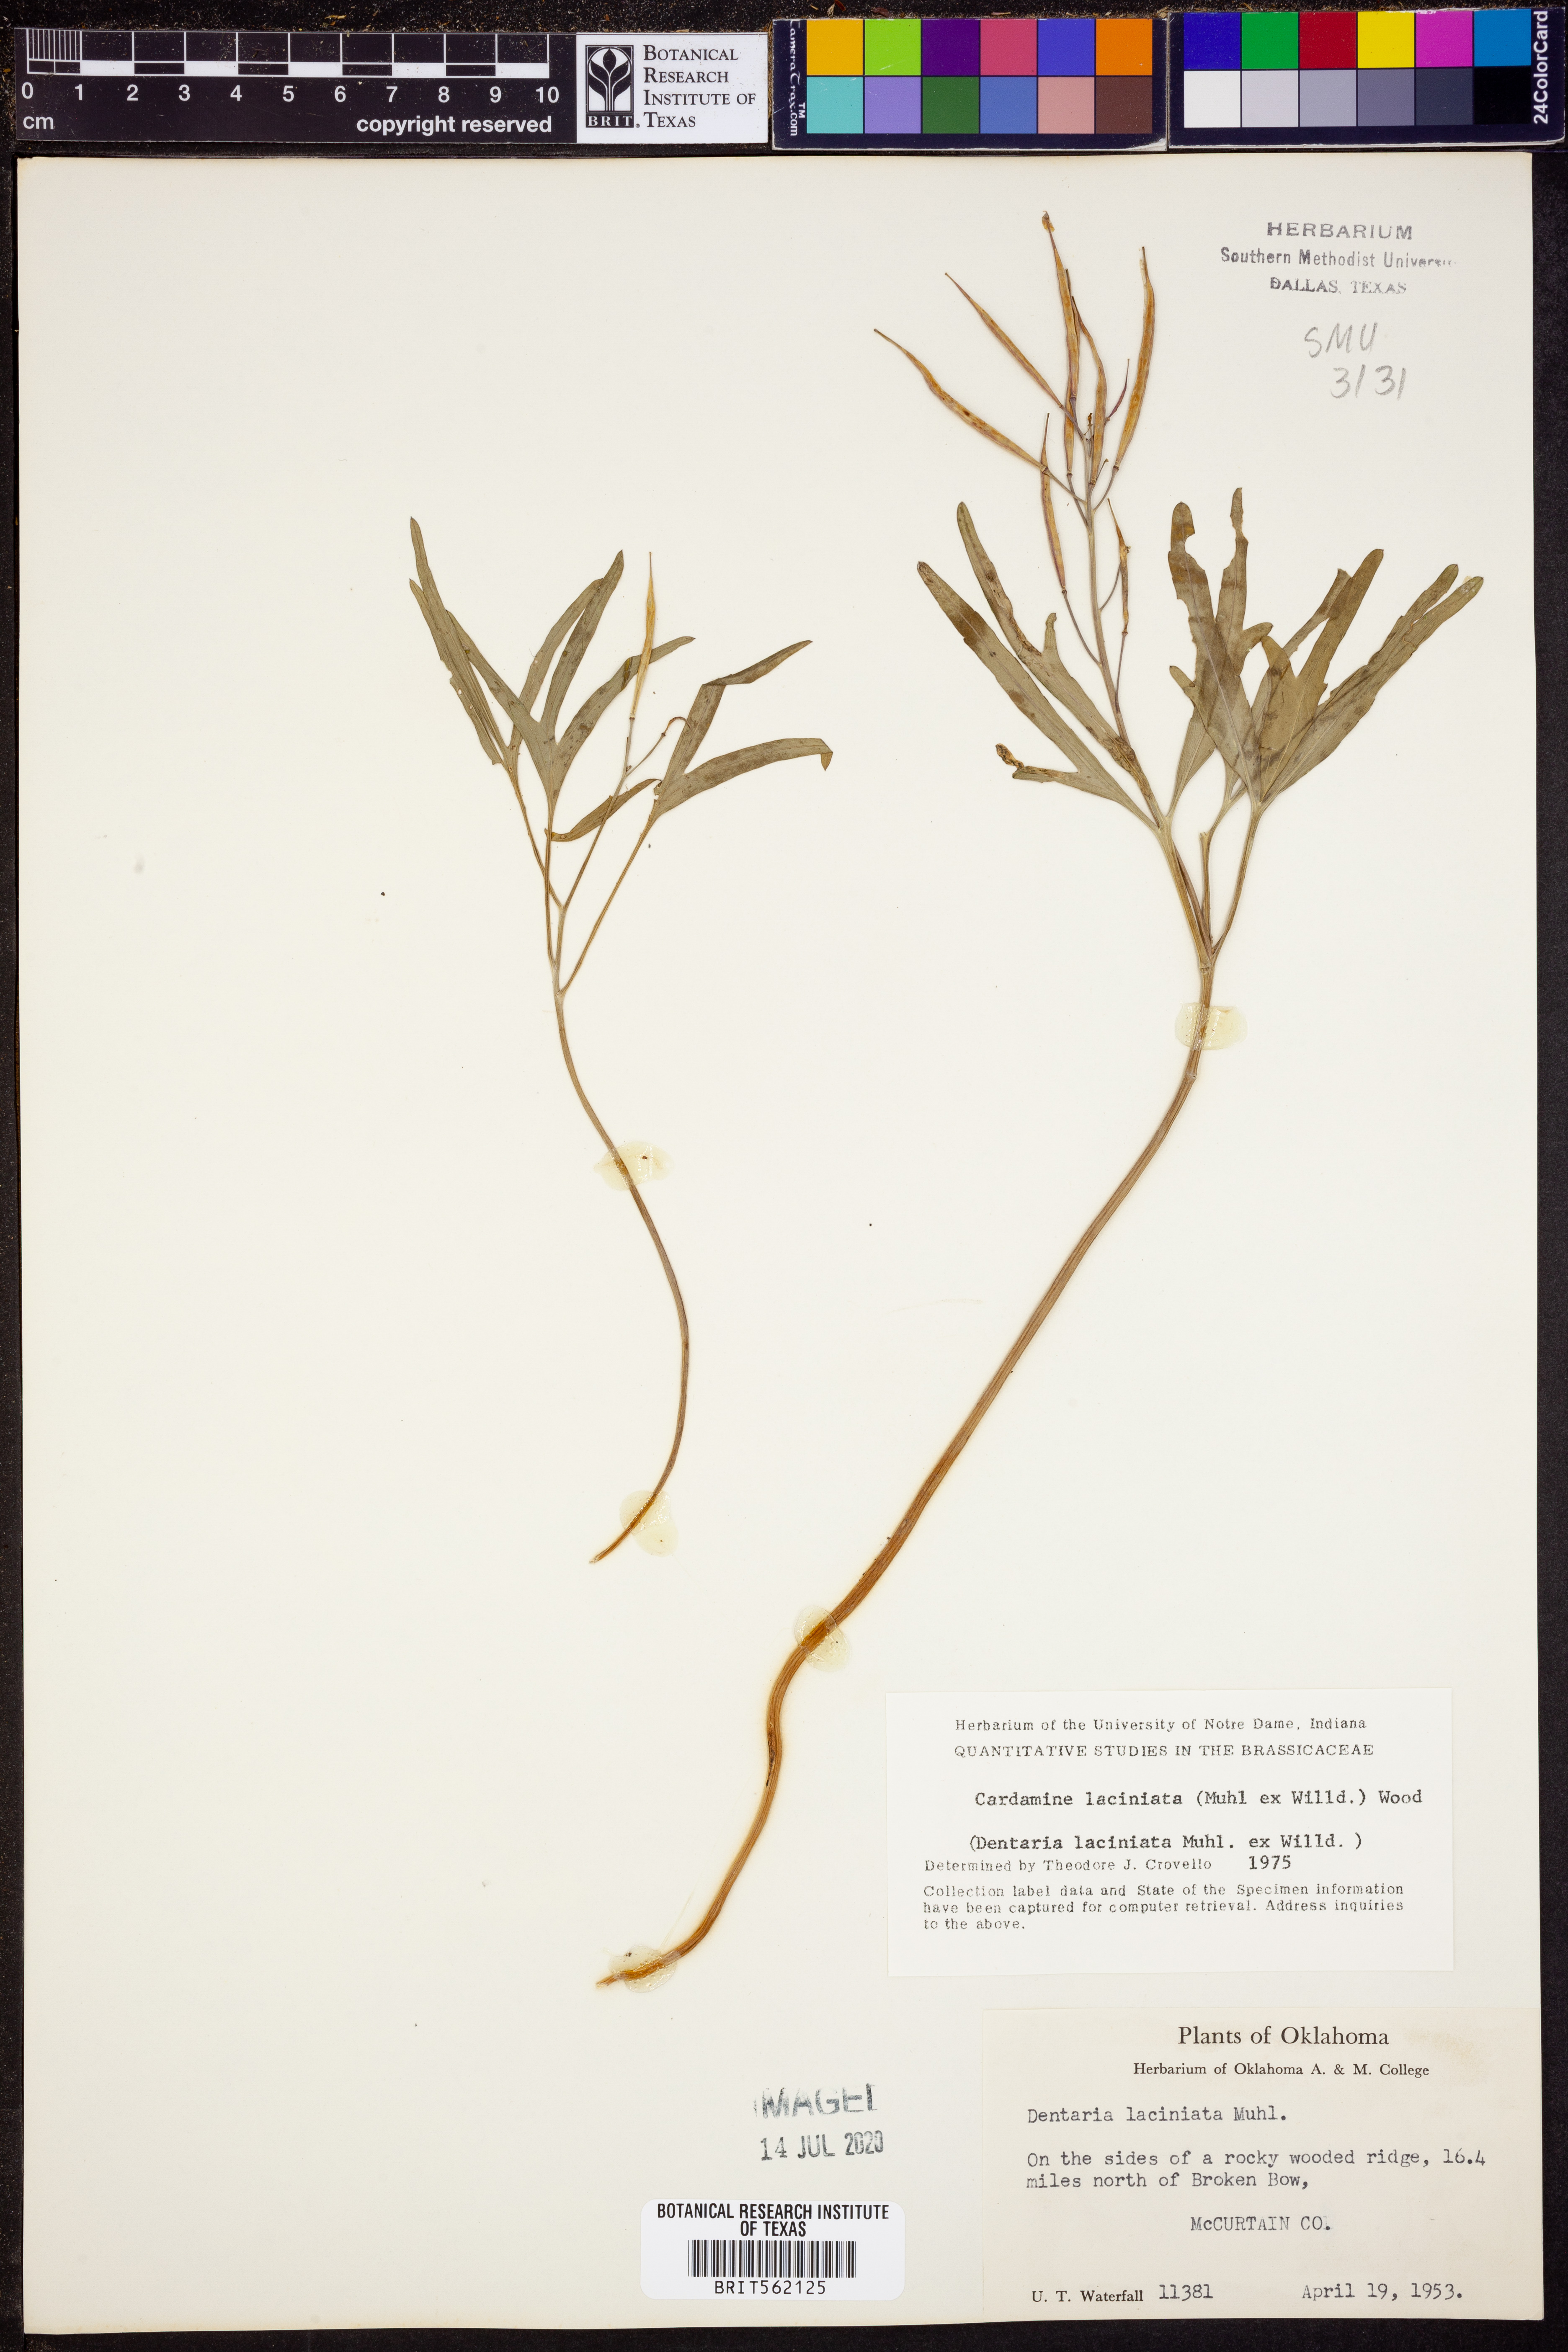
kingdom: Plantae
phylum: Tracheophyta
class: Magnoliopsida
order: Brassicales
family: Brassicaceae
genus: Rorippa
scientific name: Rorippa laciniata
